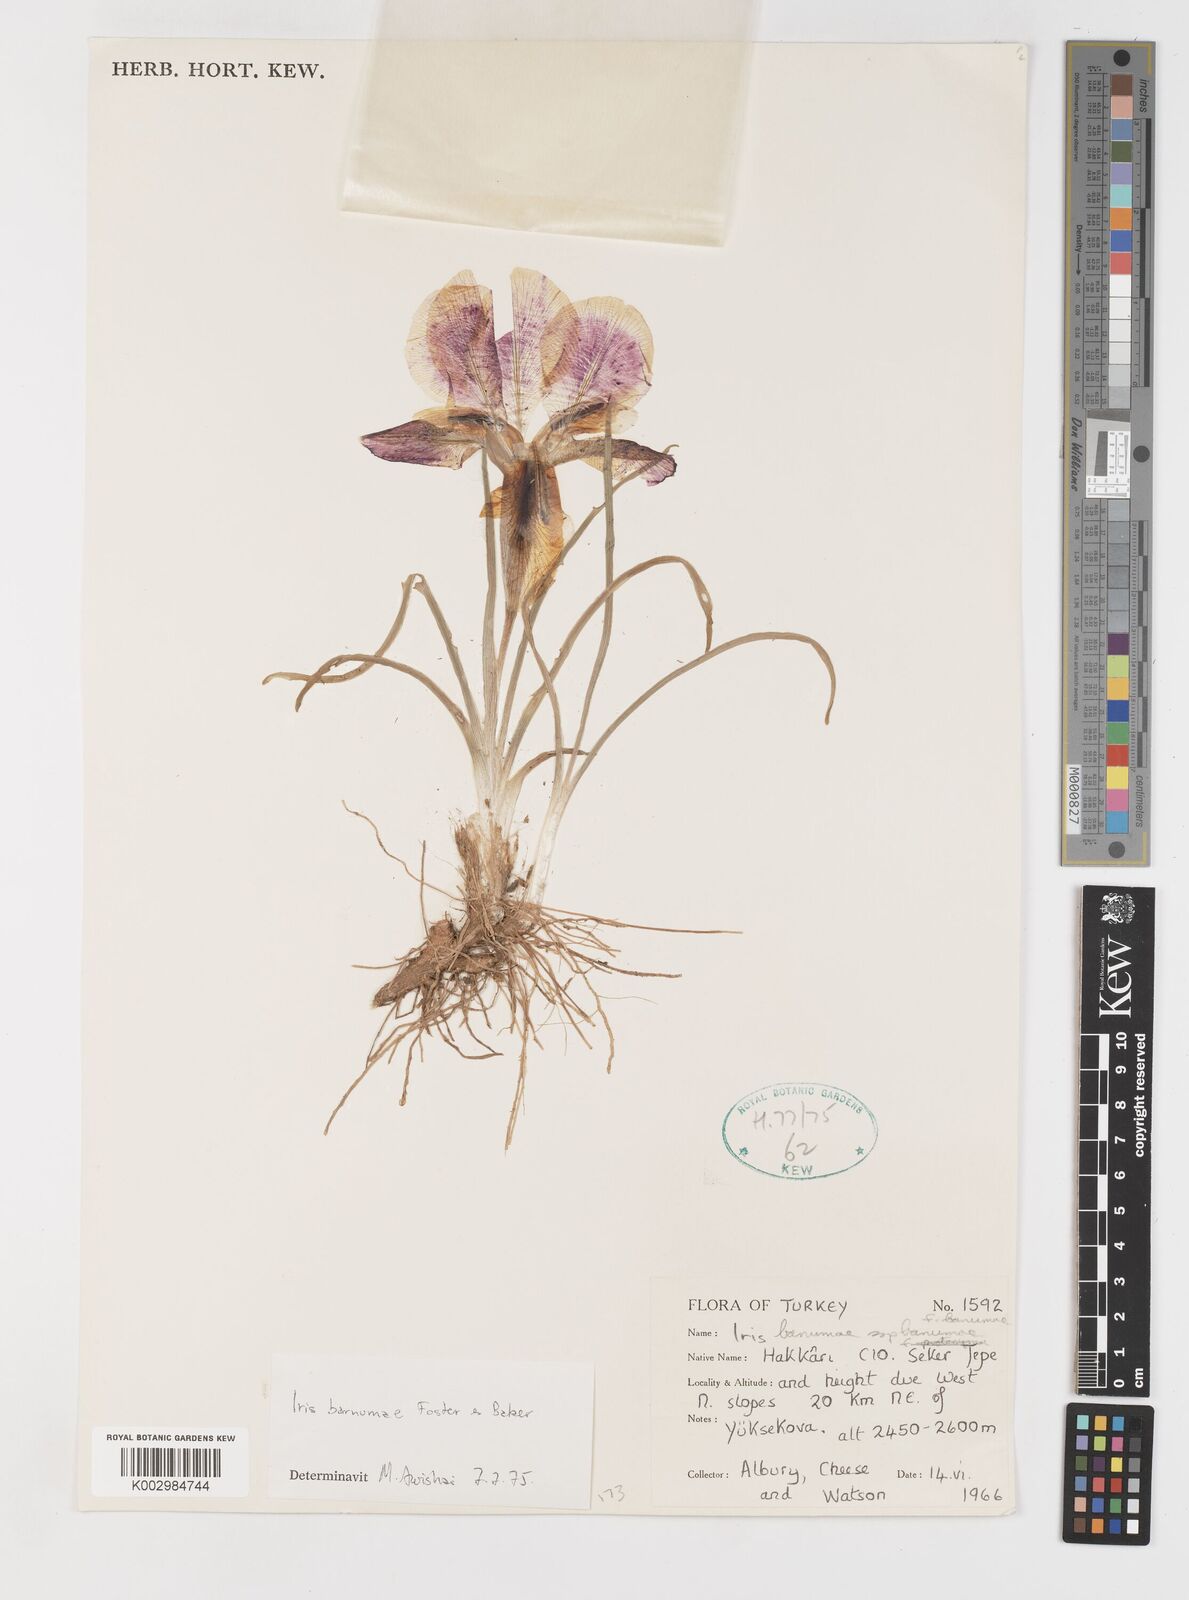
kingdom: Plantae
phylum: Tracheophyta
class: Liliopsida
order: Asparagales
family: Iridaceae
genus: Iris
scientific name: Iris barnumiae
